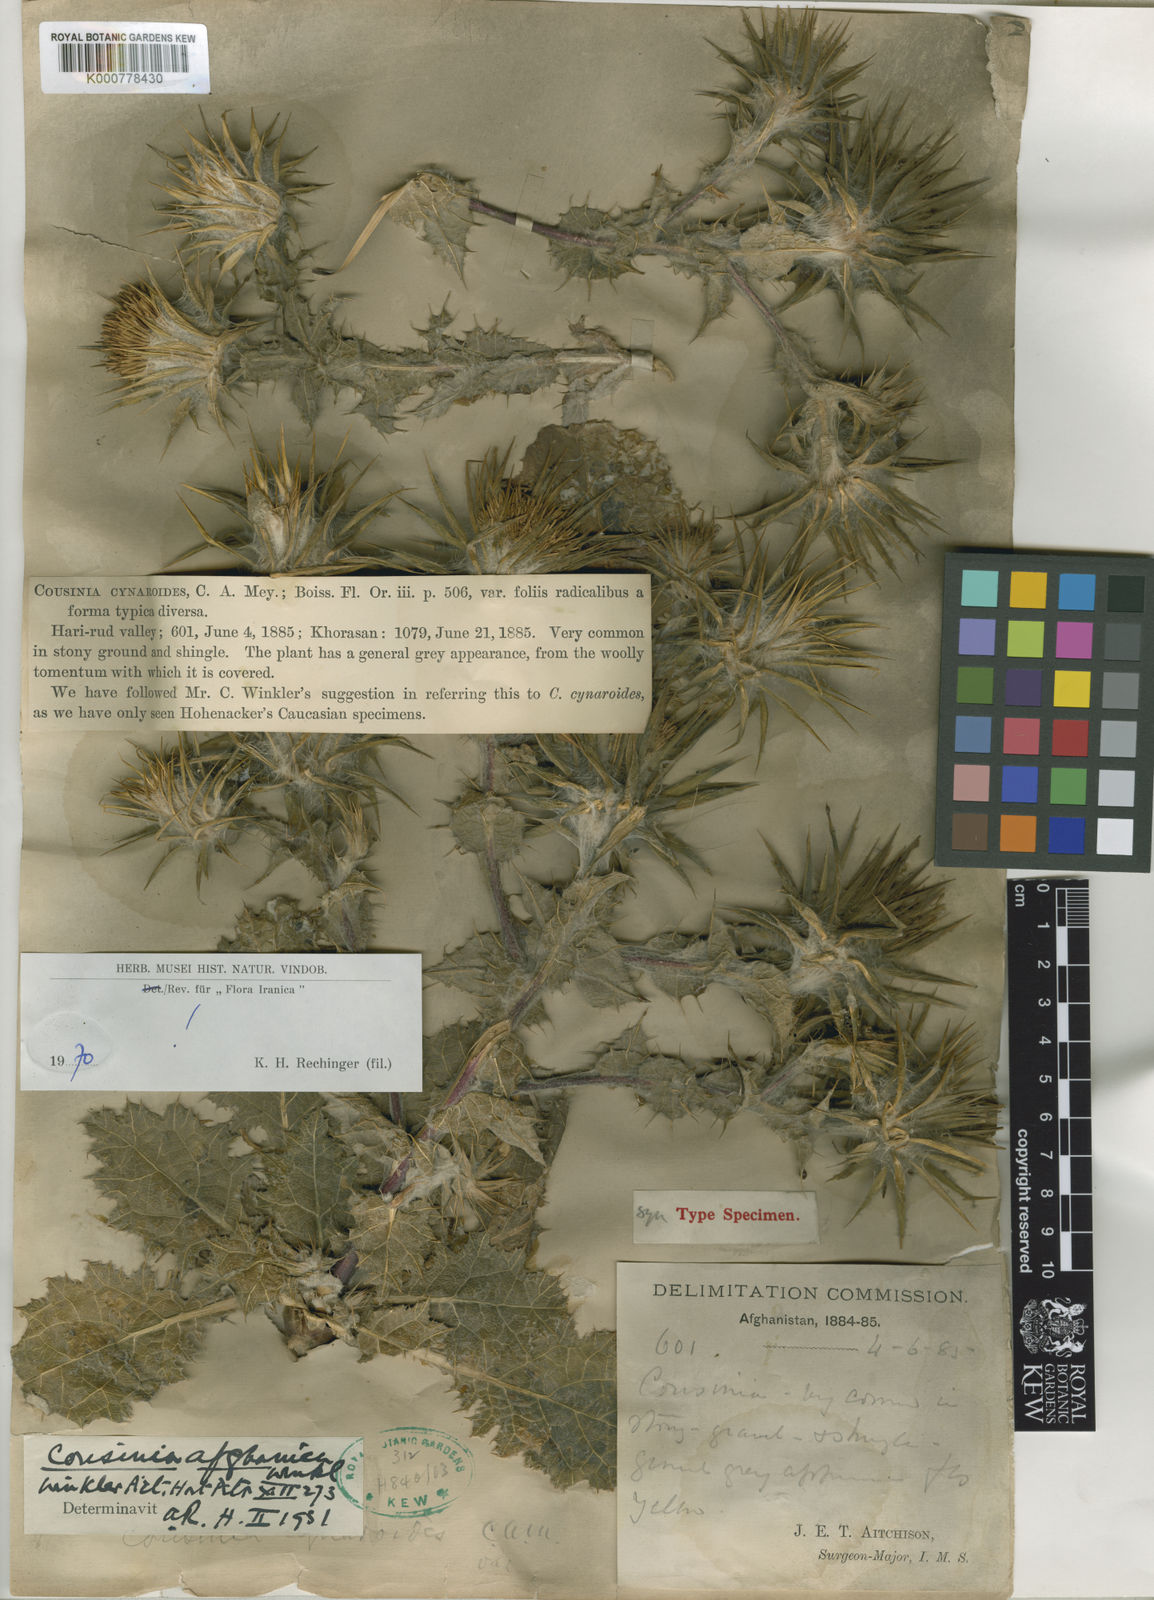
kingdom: Plantae
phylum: Tracheophyta
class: Magnoliopsida
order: Asterales
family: Asteraceae
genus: Cousinia
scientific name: Cousinia afghanica
